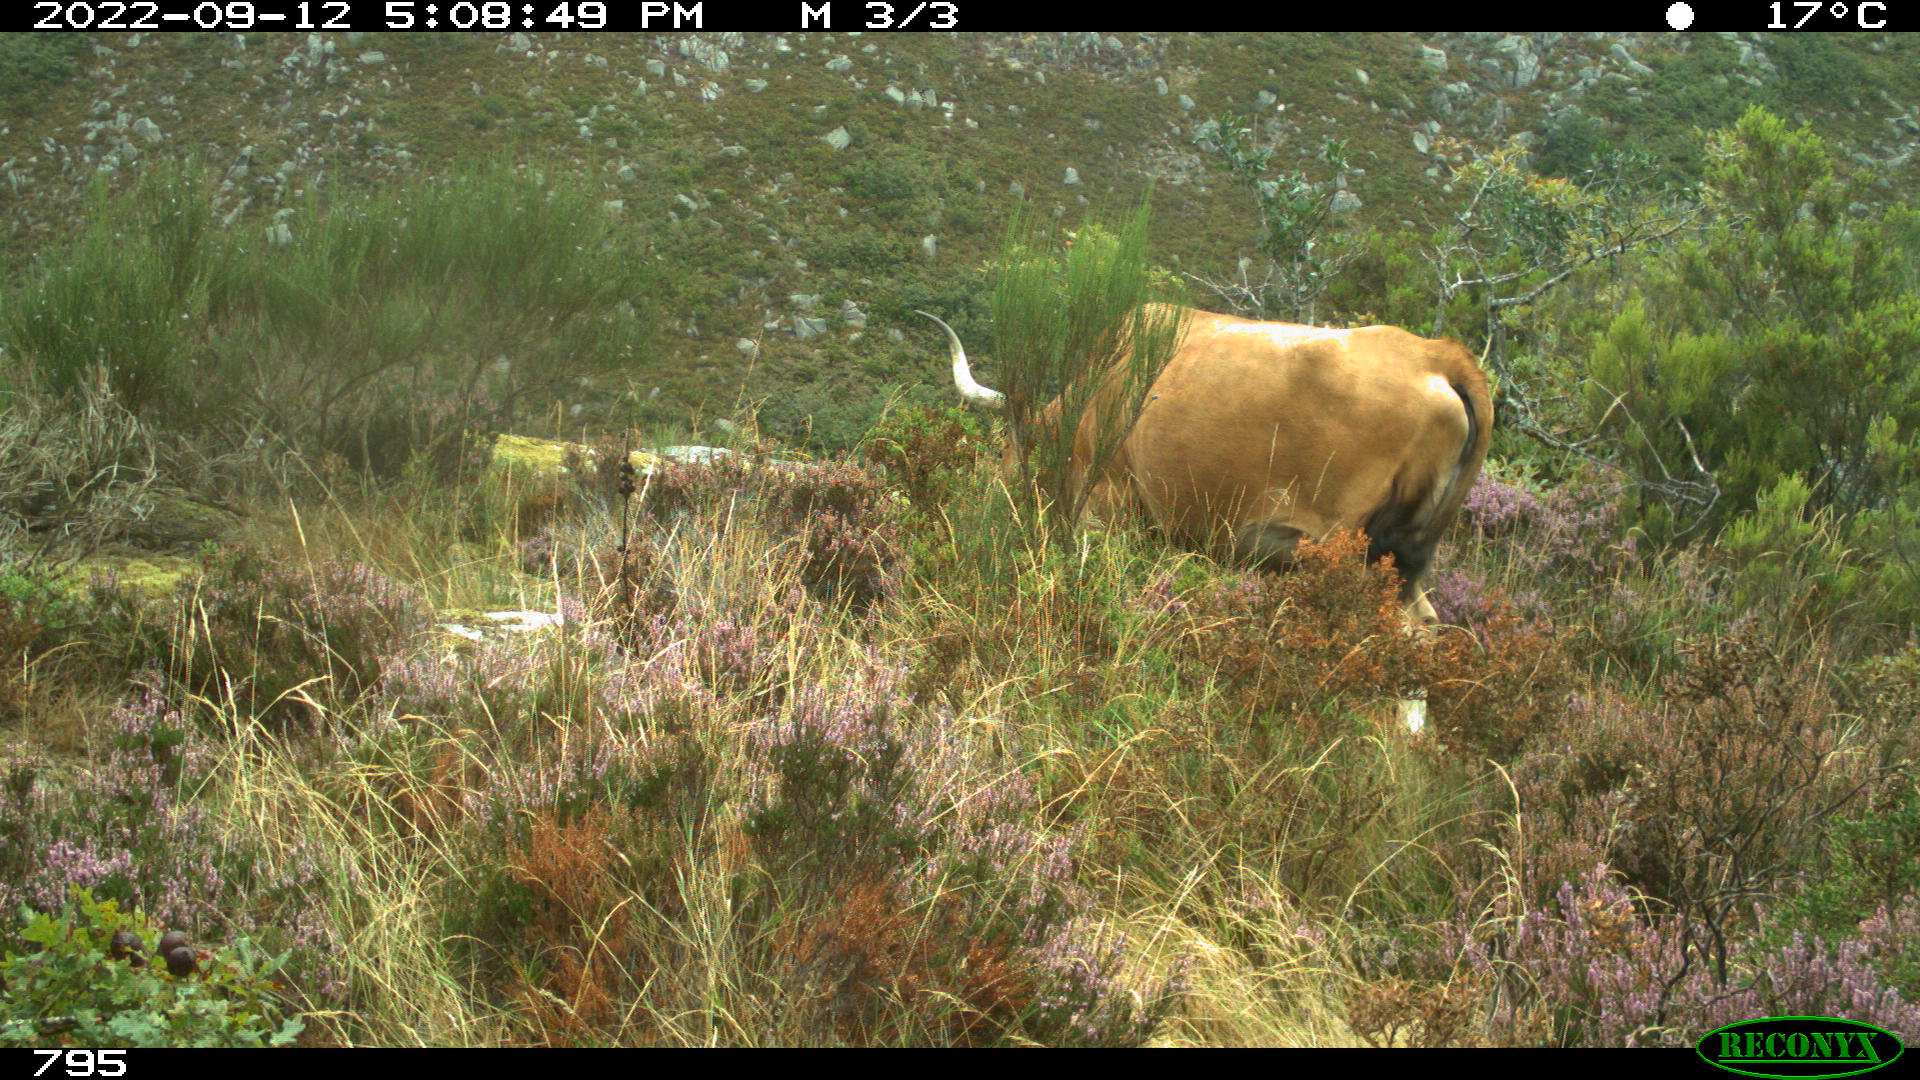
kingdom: Animalia
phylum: Chordata
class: Mammalia
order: Artiodactyla
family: Bovidae
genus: Bos
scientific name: Bos taurus
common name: Domesticated cattle
